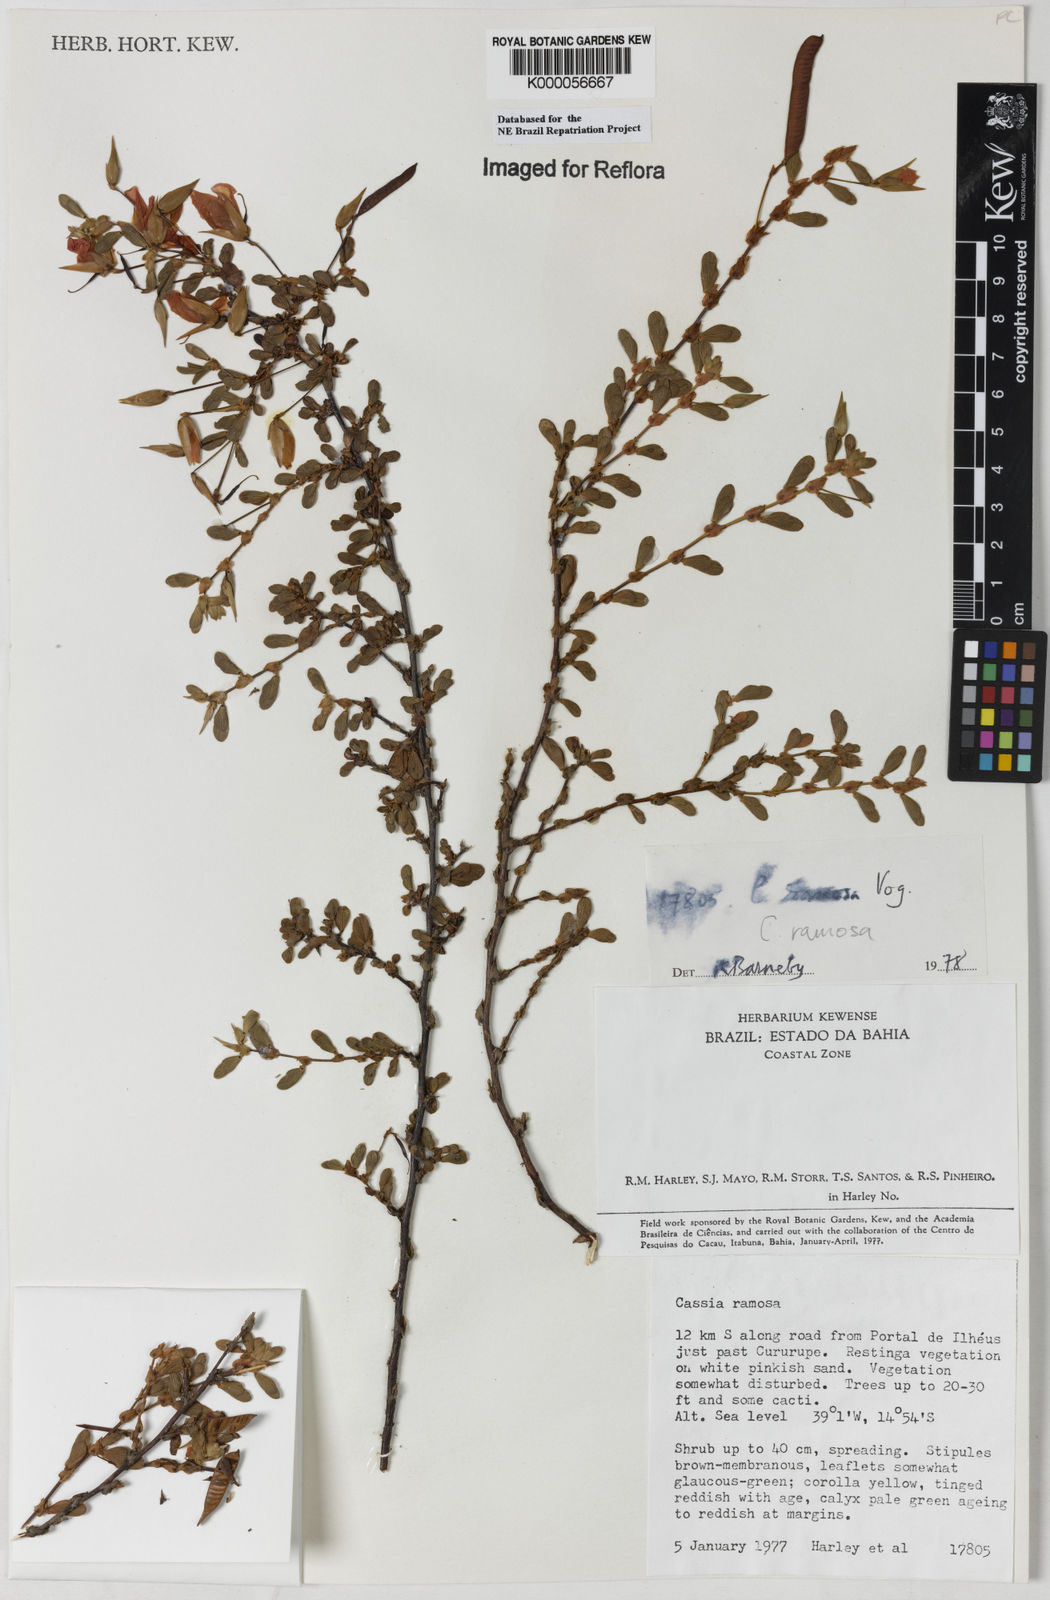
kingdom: Plantae
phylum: Tracheophyta
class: Magnoliopsida
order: Fabales
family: Fabaceae
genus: Chamaecrista
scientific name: Chamaecrista ramosa
